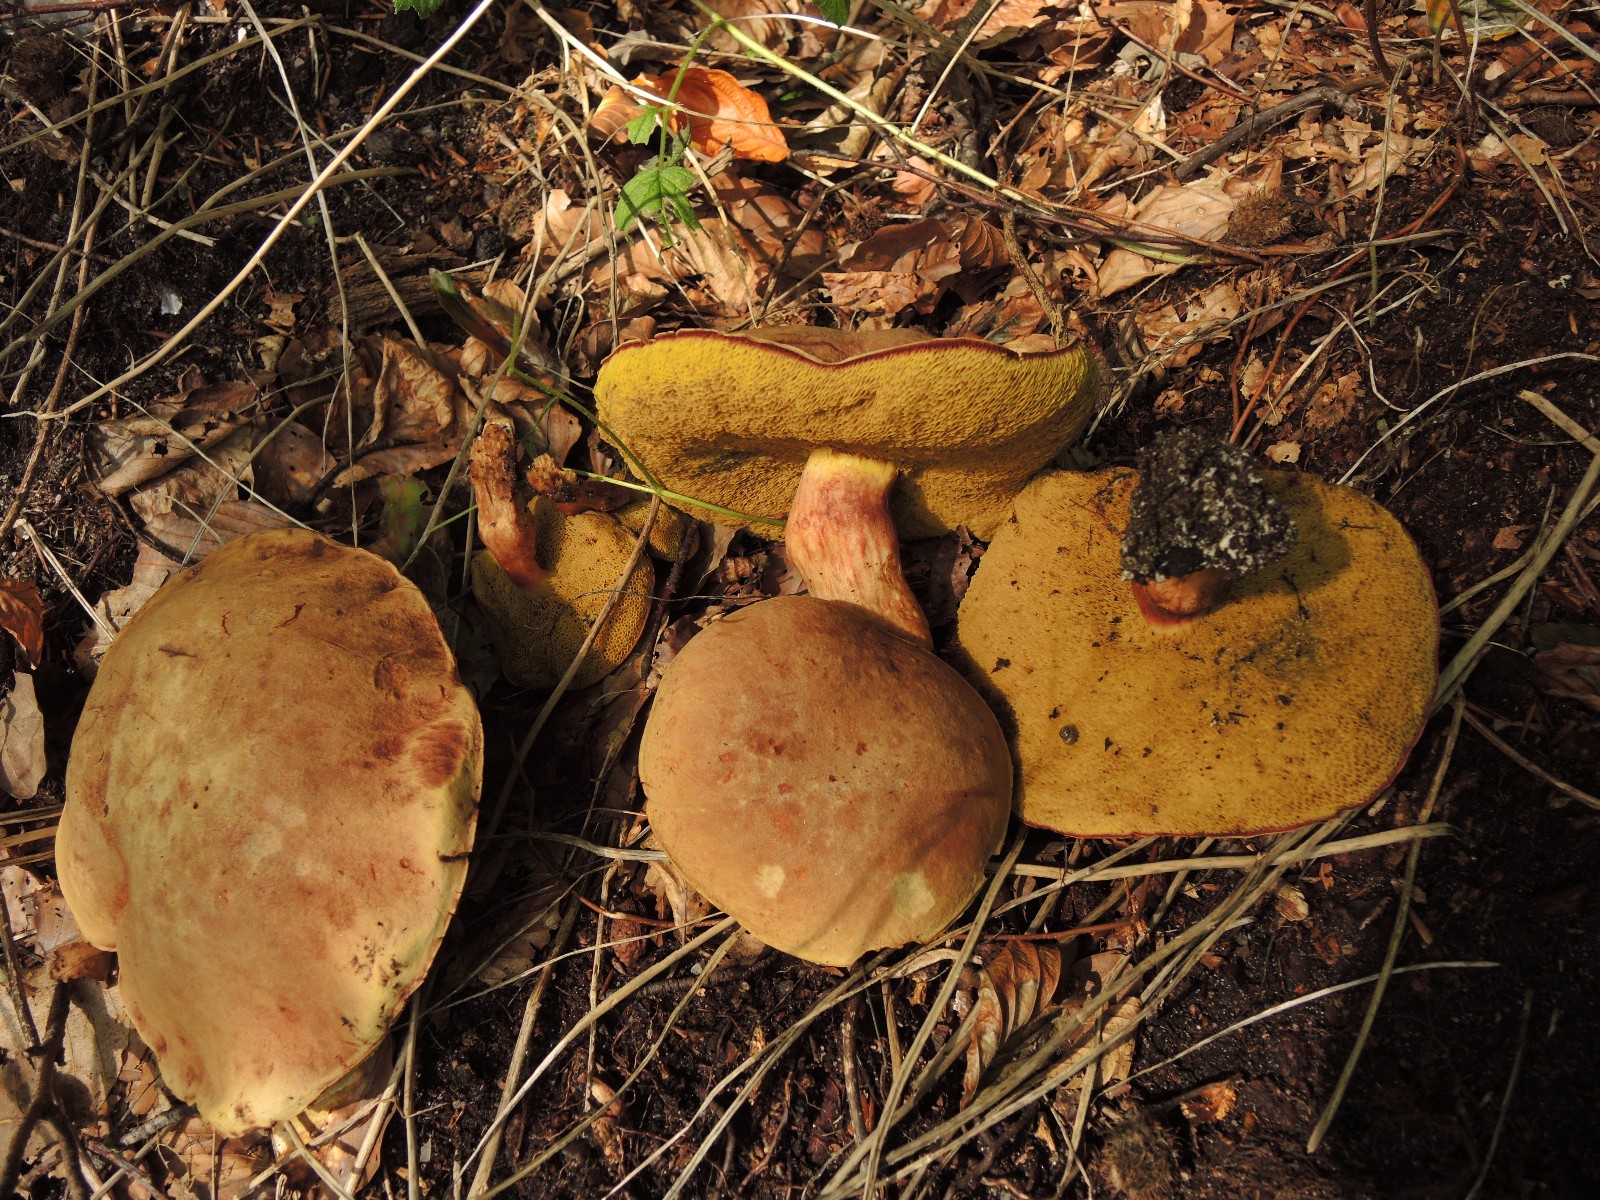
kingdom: Fungi
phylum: Basidiomycota
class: Agaricomycetes
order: Boletales
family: Boletaceae
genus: Xerocomus
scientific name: Xerocomus subtomentosus
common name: filtet rørhat
